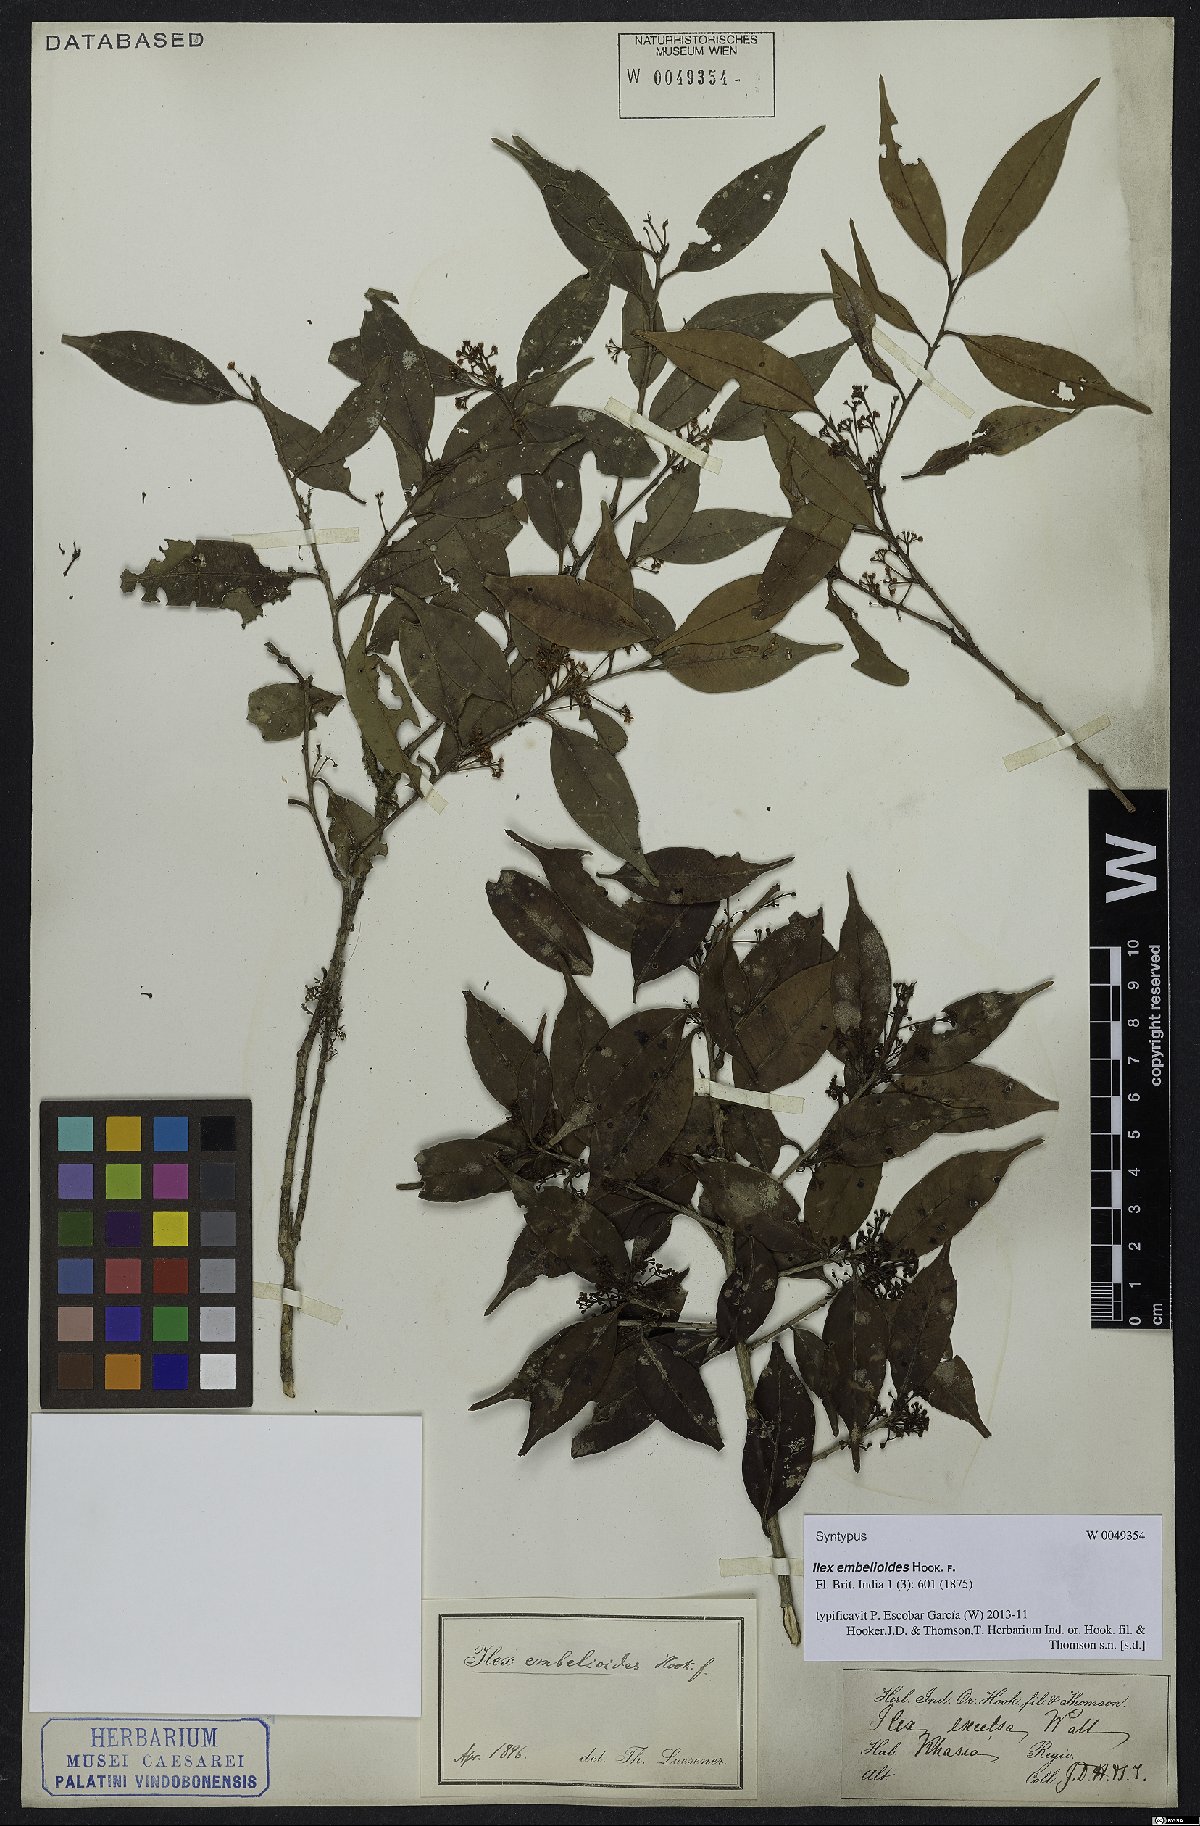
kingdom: Plantae
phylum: Tracheophyta
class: Magnoliopsida
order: Aquifoliales
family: Aquifoliaceae
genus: Ilex
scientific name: Ilex embelioides
